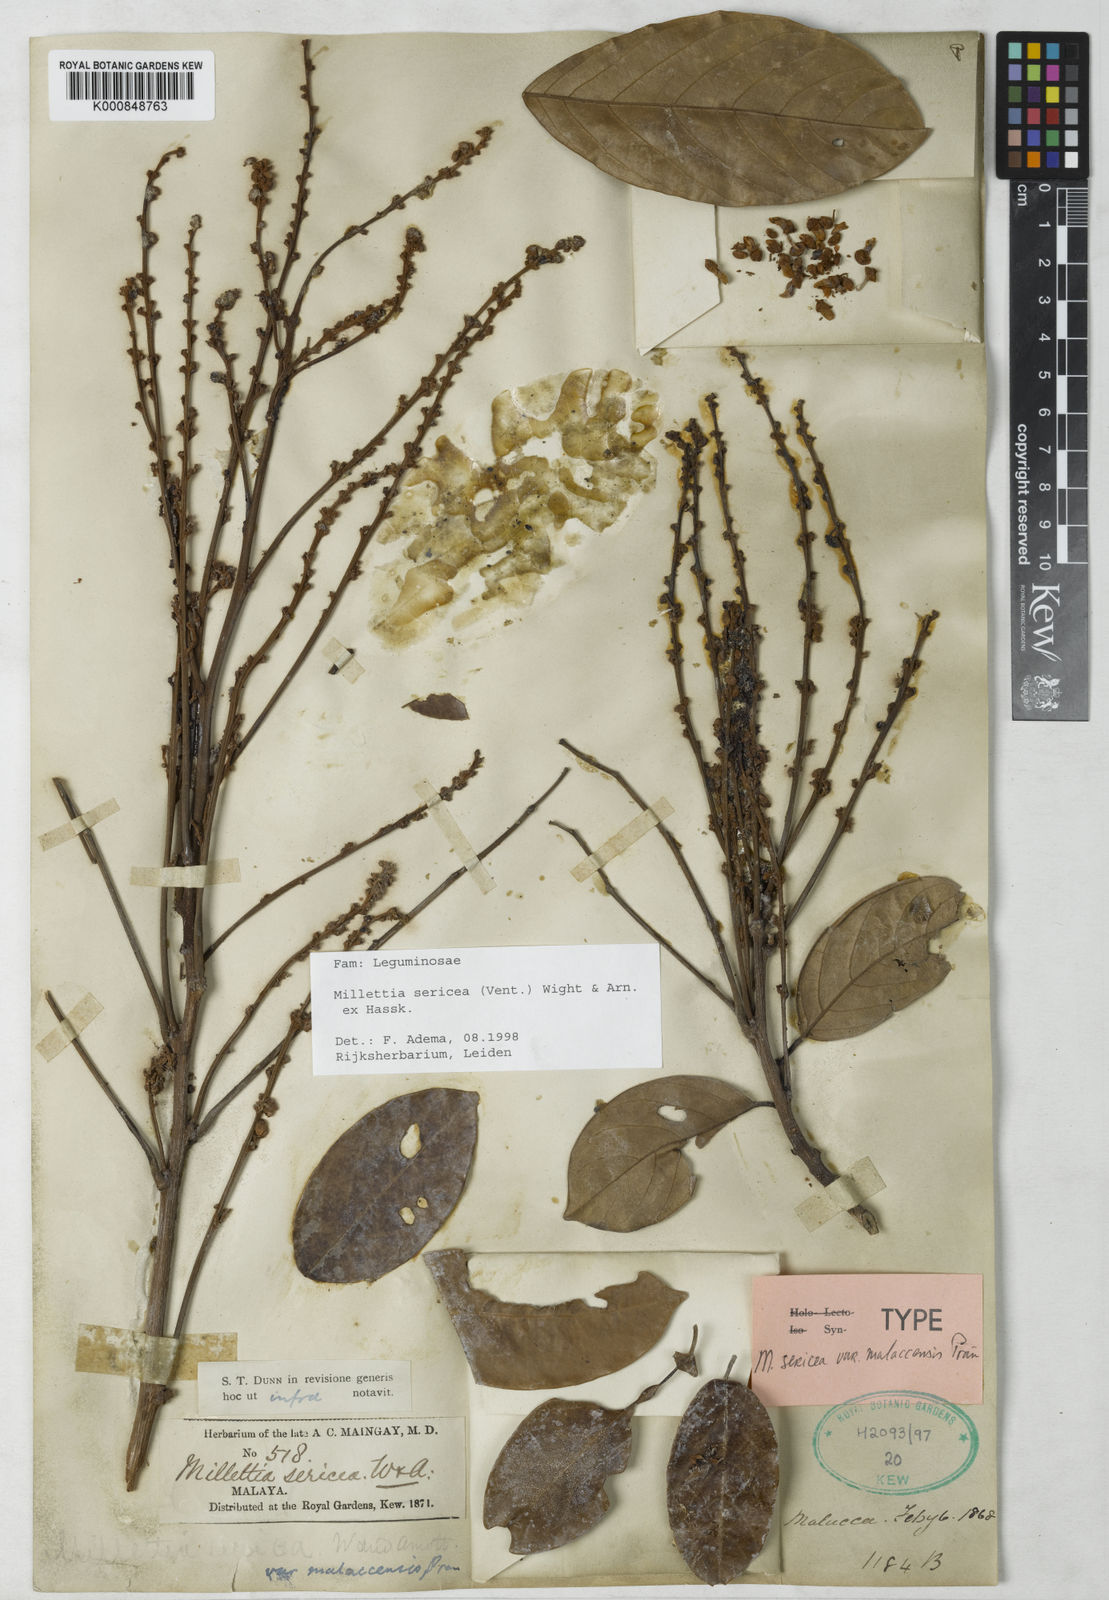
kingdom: Plantae
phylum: Tracheophyta
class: Magnoliopsida
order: Fabales
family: Fabaceae
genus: Millettia
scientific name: Millettia
